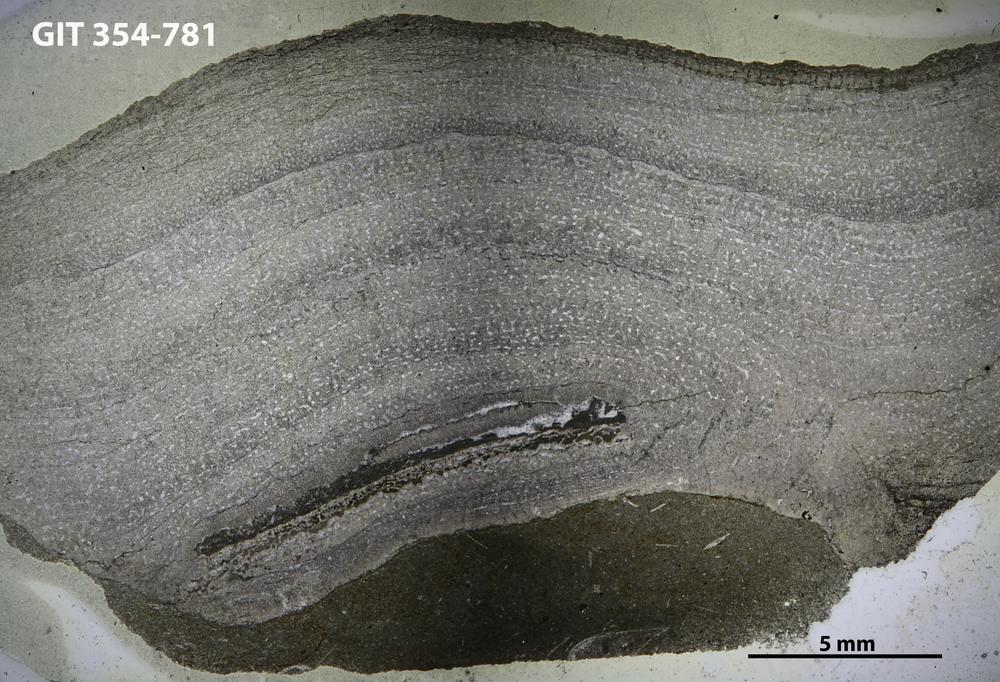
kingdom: Animalia
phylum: Porifera
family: Stromatoporidae
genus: Stromatopora
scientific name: Stromatopora
